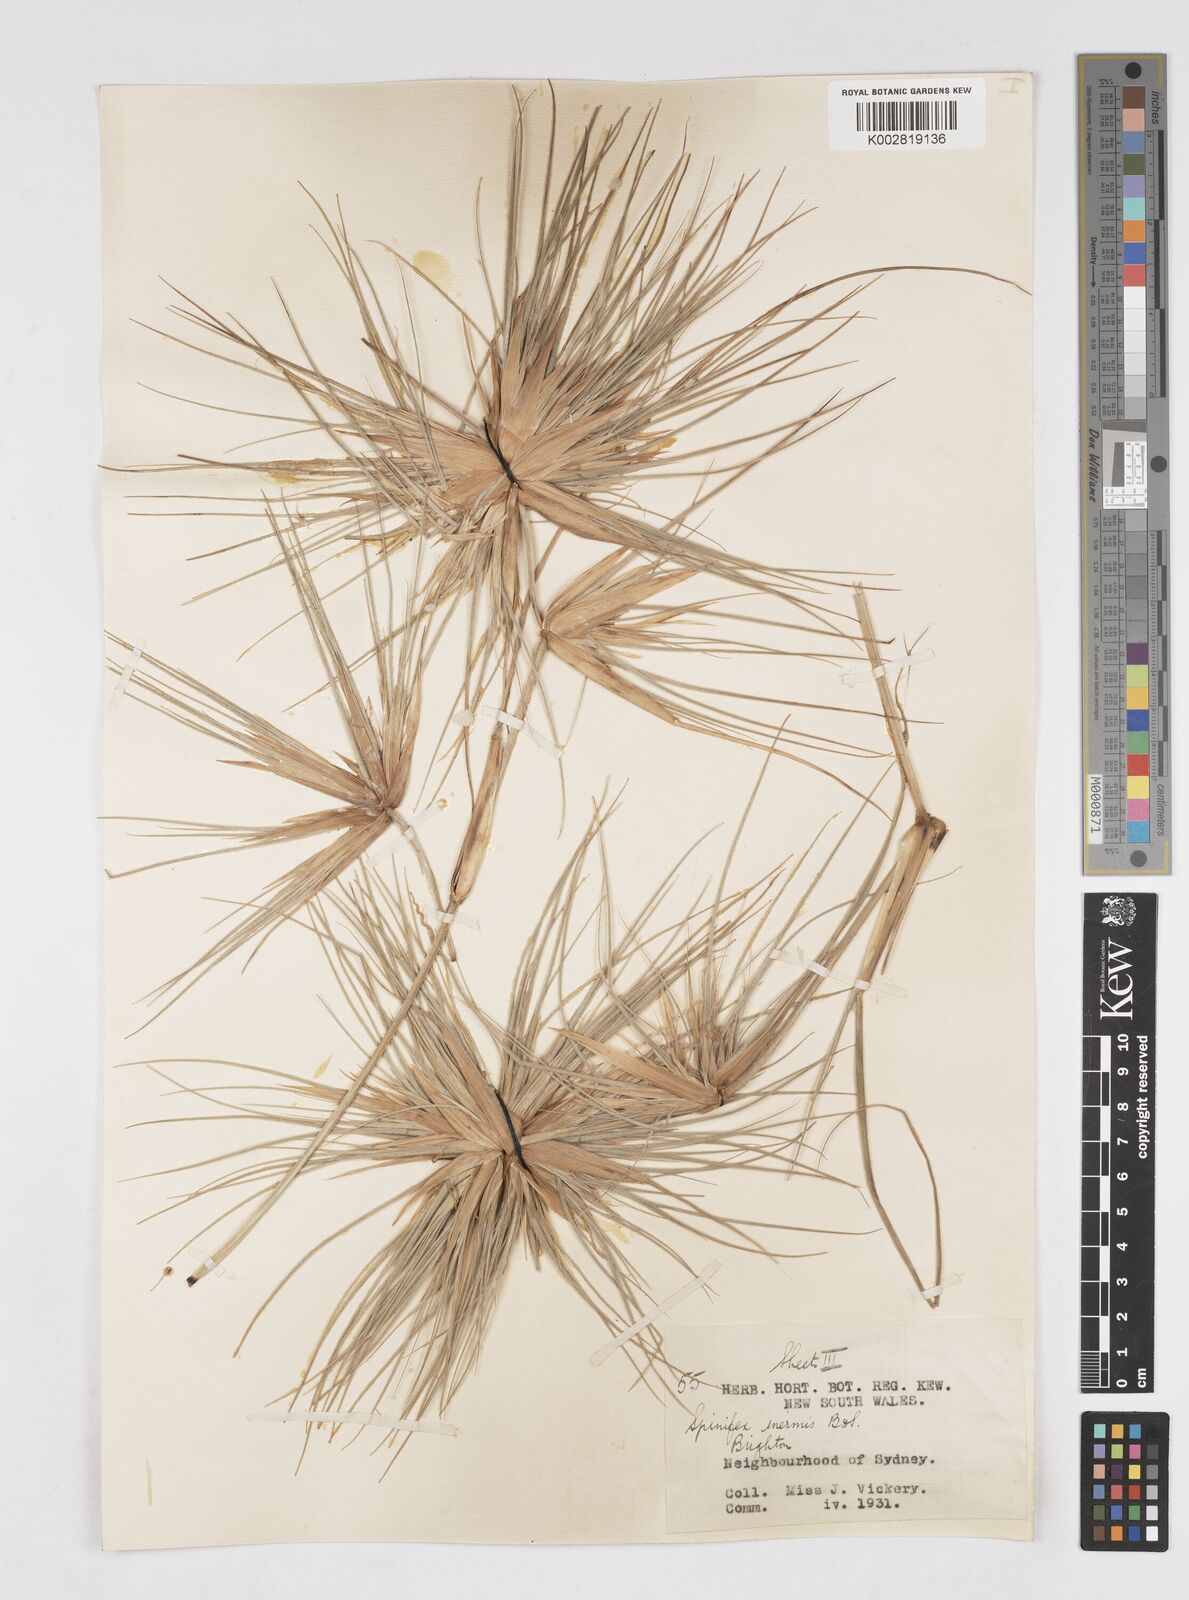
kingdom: Plantae
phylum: Tracheophyta
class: Liliopsida
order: Poales
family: Poaceae
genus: Spinifex
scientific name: Spinifex sericeus
